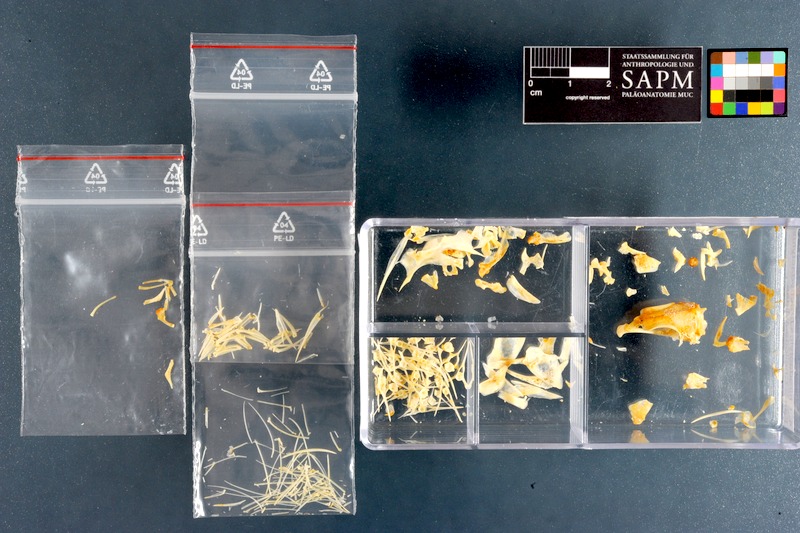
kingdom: Animalia
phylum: Chordata
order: Perciformes
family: Cheilodactylidae
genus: Chirodactylus
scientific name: Chirodactylus brachydactylus
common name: Butterfish
